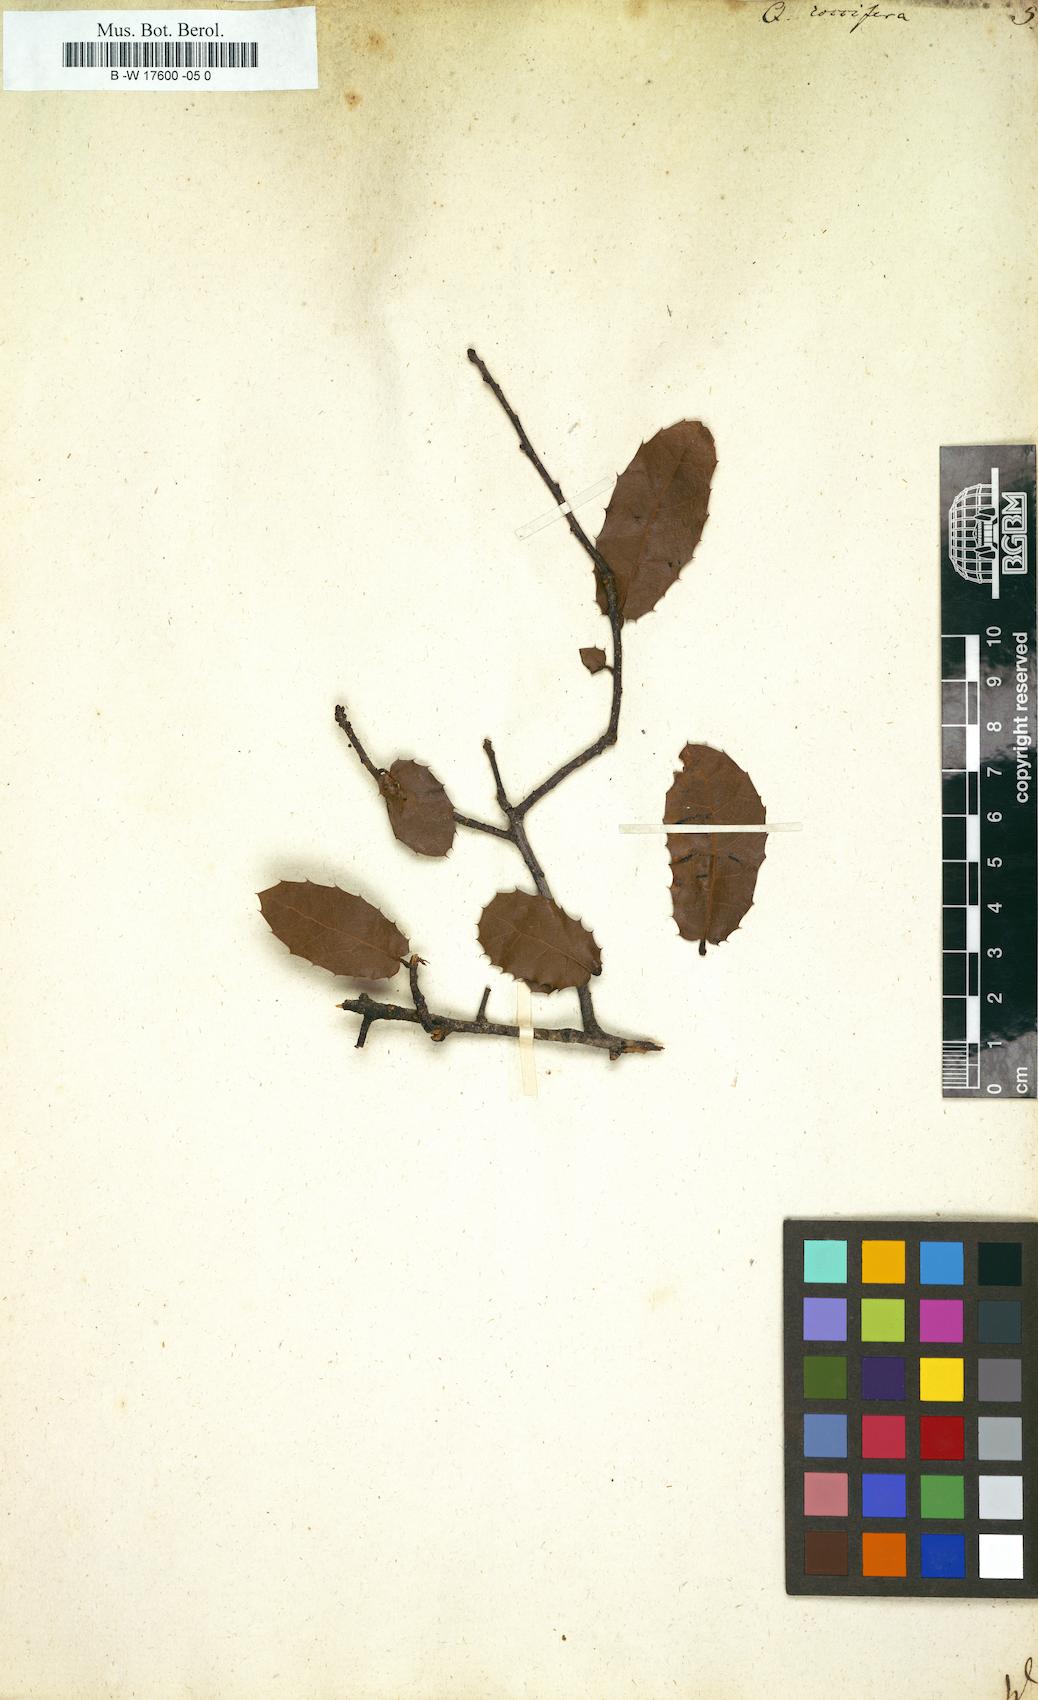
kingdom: Plantae
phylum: Tracheophyta
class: Magnoliopsida
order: Fagales
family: Fagaceae
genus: Quercus
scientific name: Quercus coccifera
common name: Kermes oak
